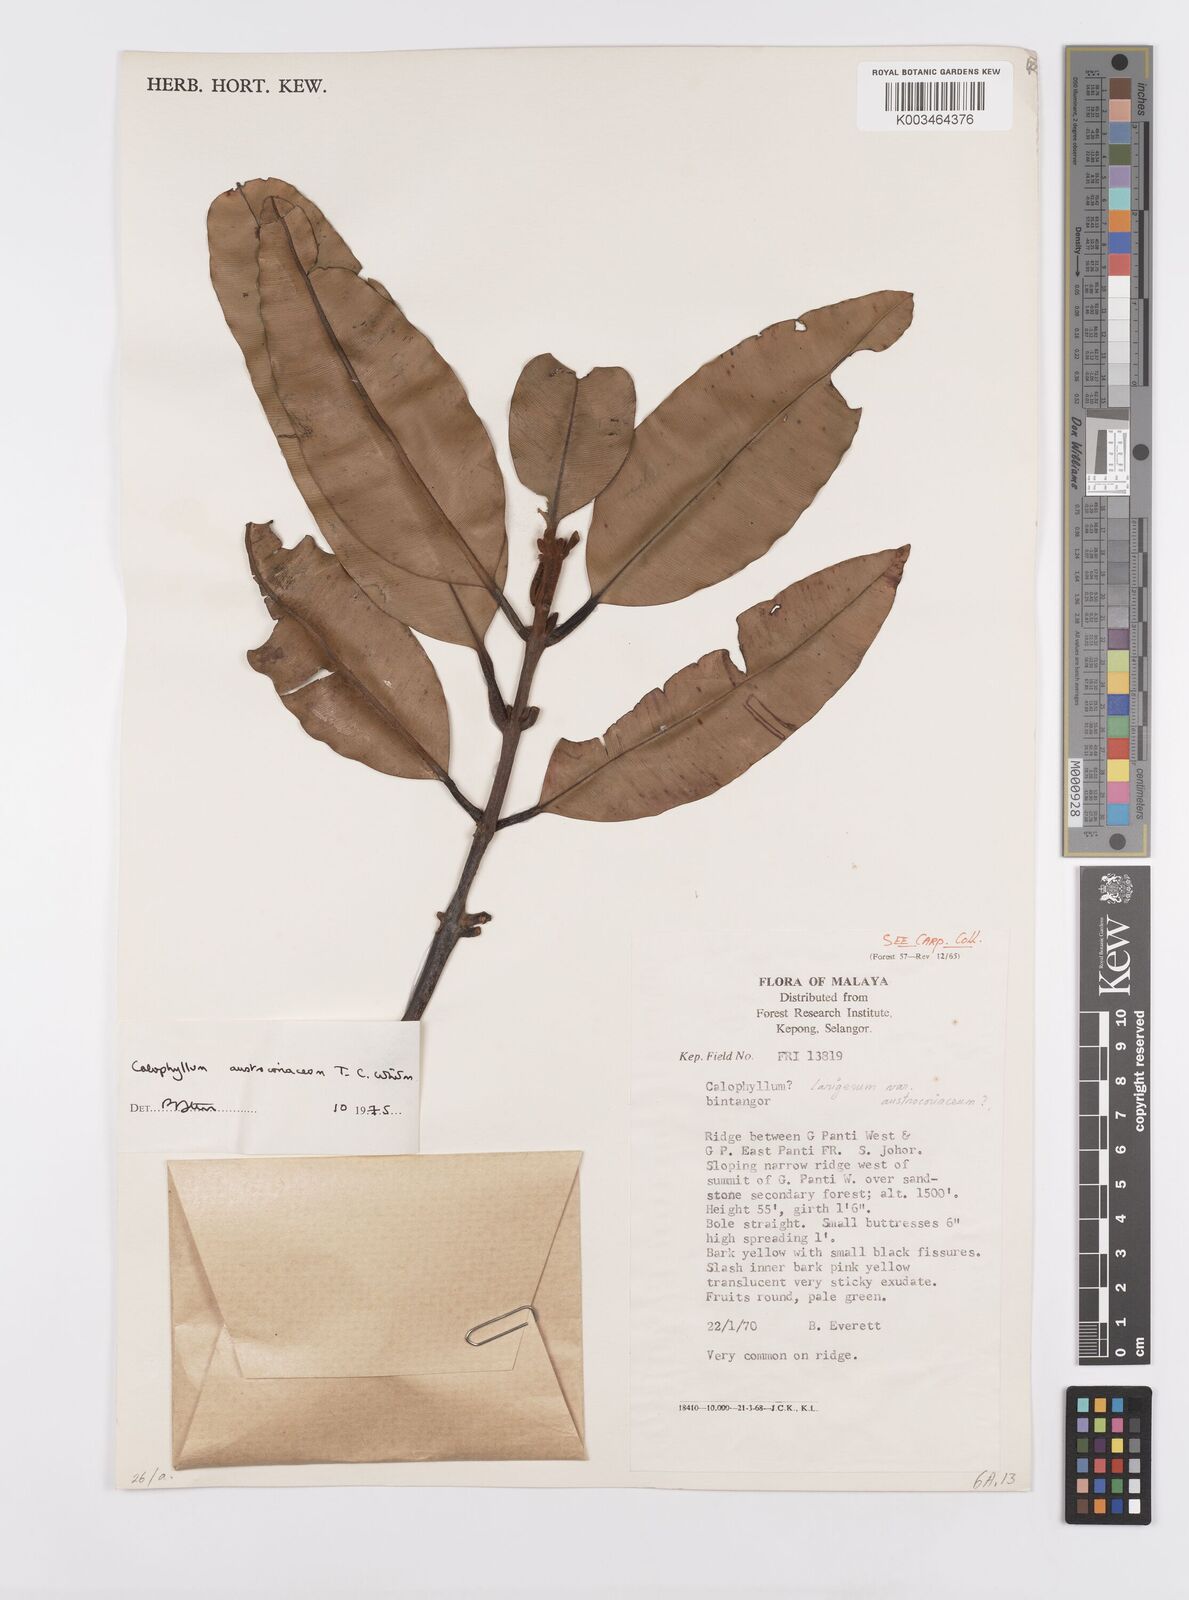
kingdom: Plantae
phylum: Tracheophyta
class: Magnoliopsida
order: Malpighiales
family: Calophyllaceae
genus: Calophyllum
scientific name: Calophyllum lanigerum
